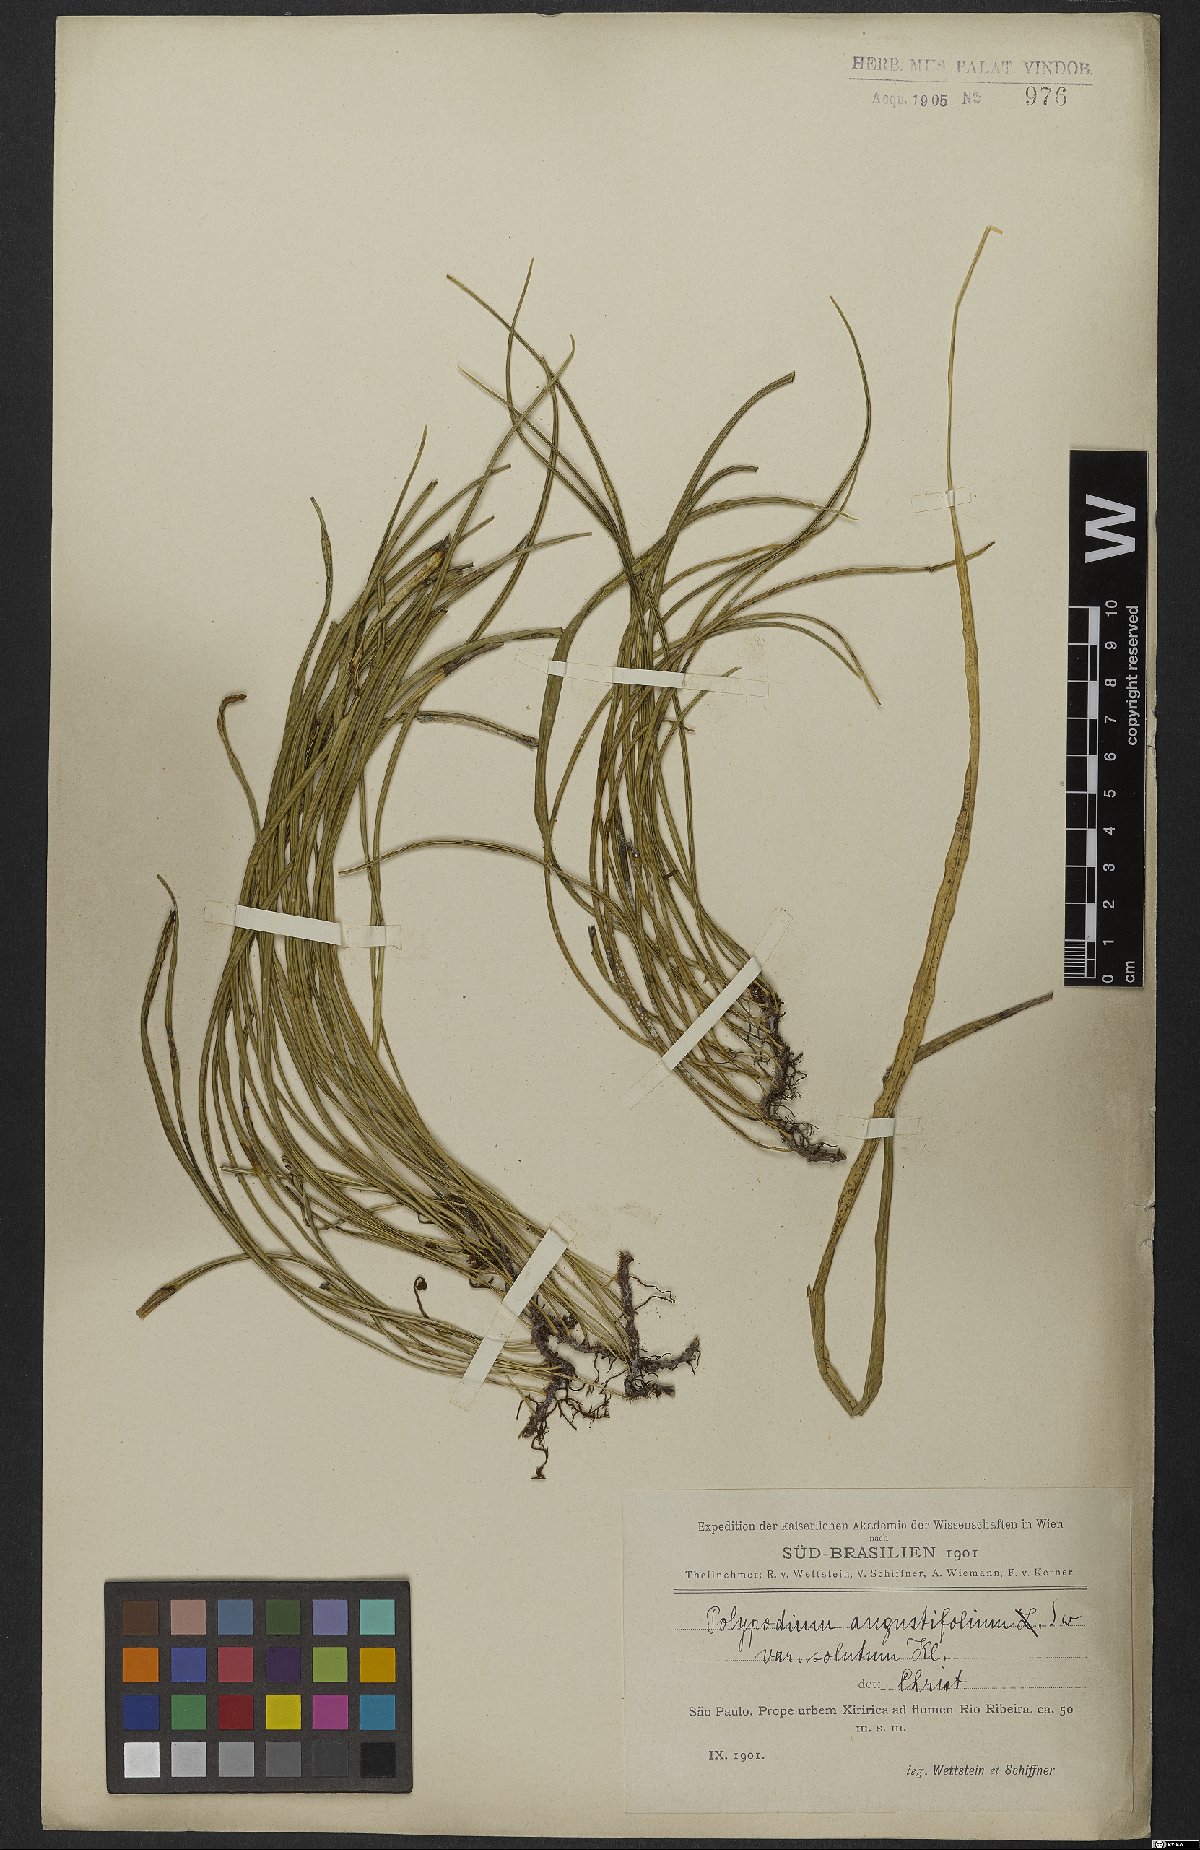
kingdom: Plantae
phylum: Tracheophyta
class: Polypodiopsida
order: Polypodiales
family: Polypodiaceae
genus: Campyloneurum
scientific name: Campyloneurum solutum
